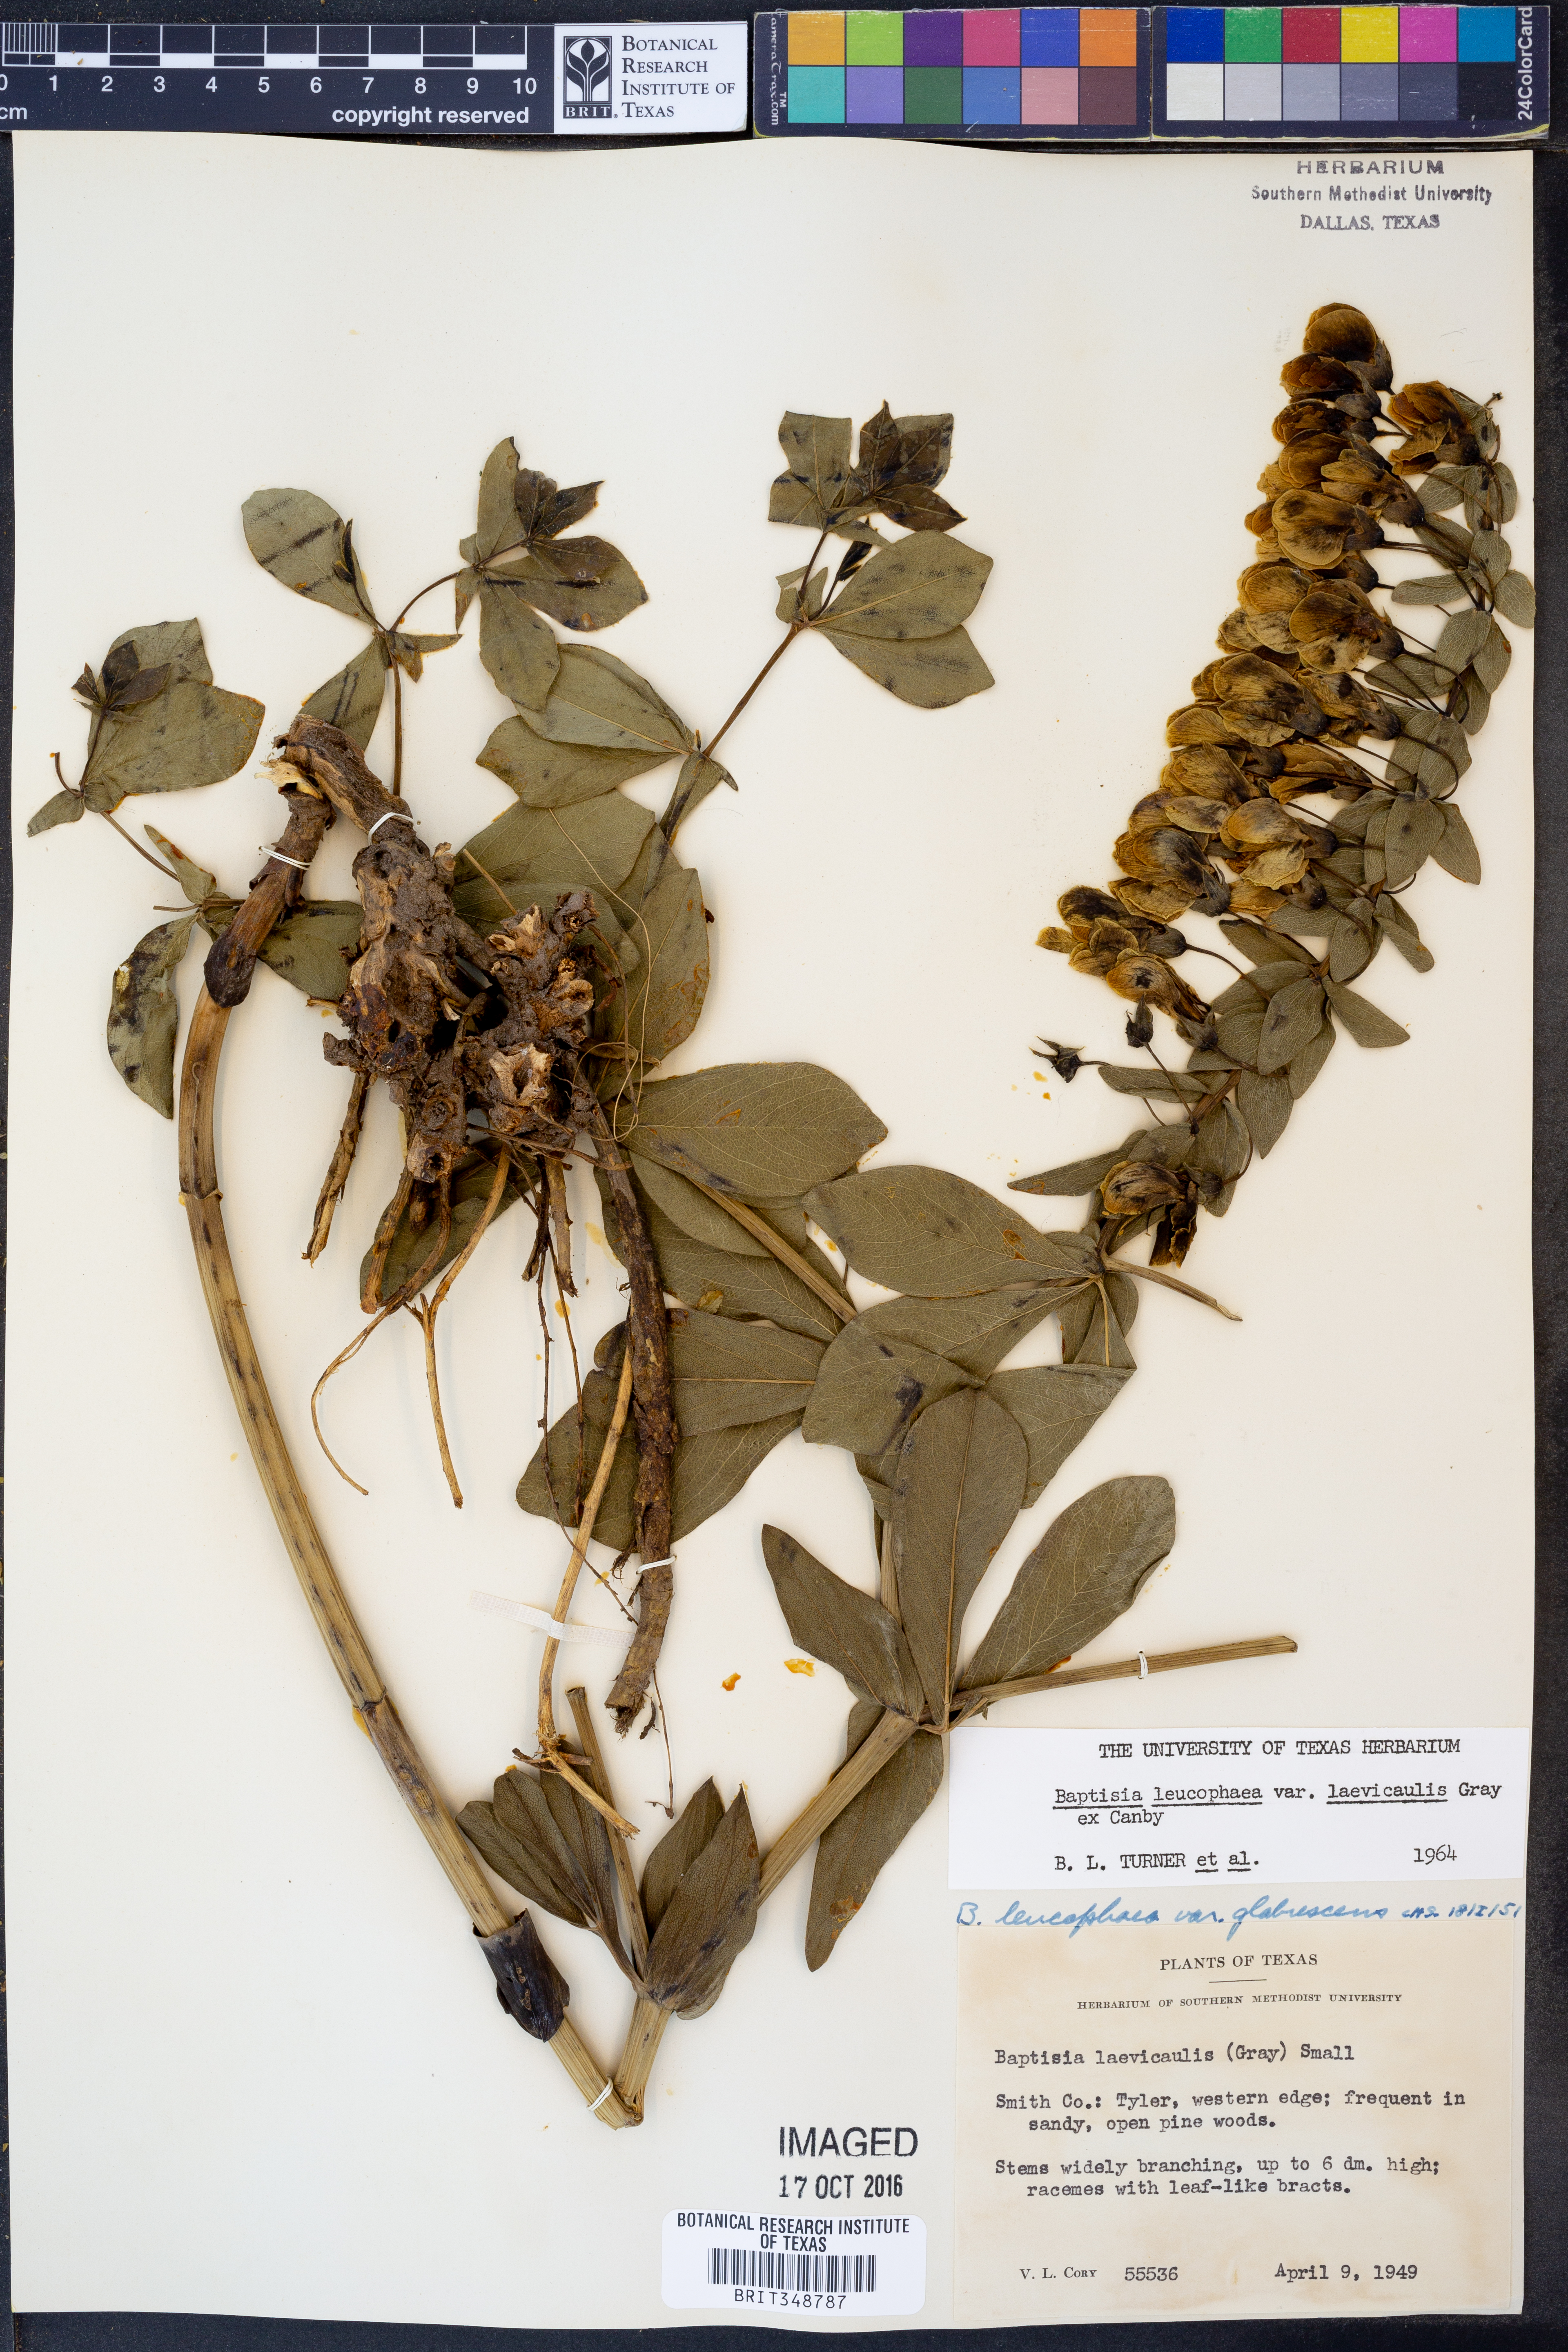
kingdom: Plantae
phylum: Tracheophyta
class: Magnoliopsida
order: Fabales
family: Fabaceae
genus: Baptisia
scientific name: Baptisia bracteata
